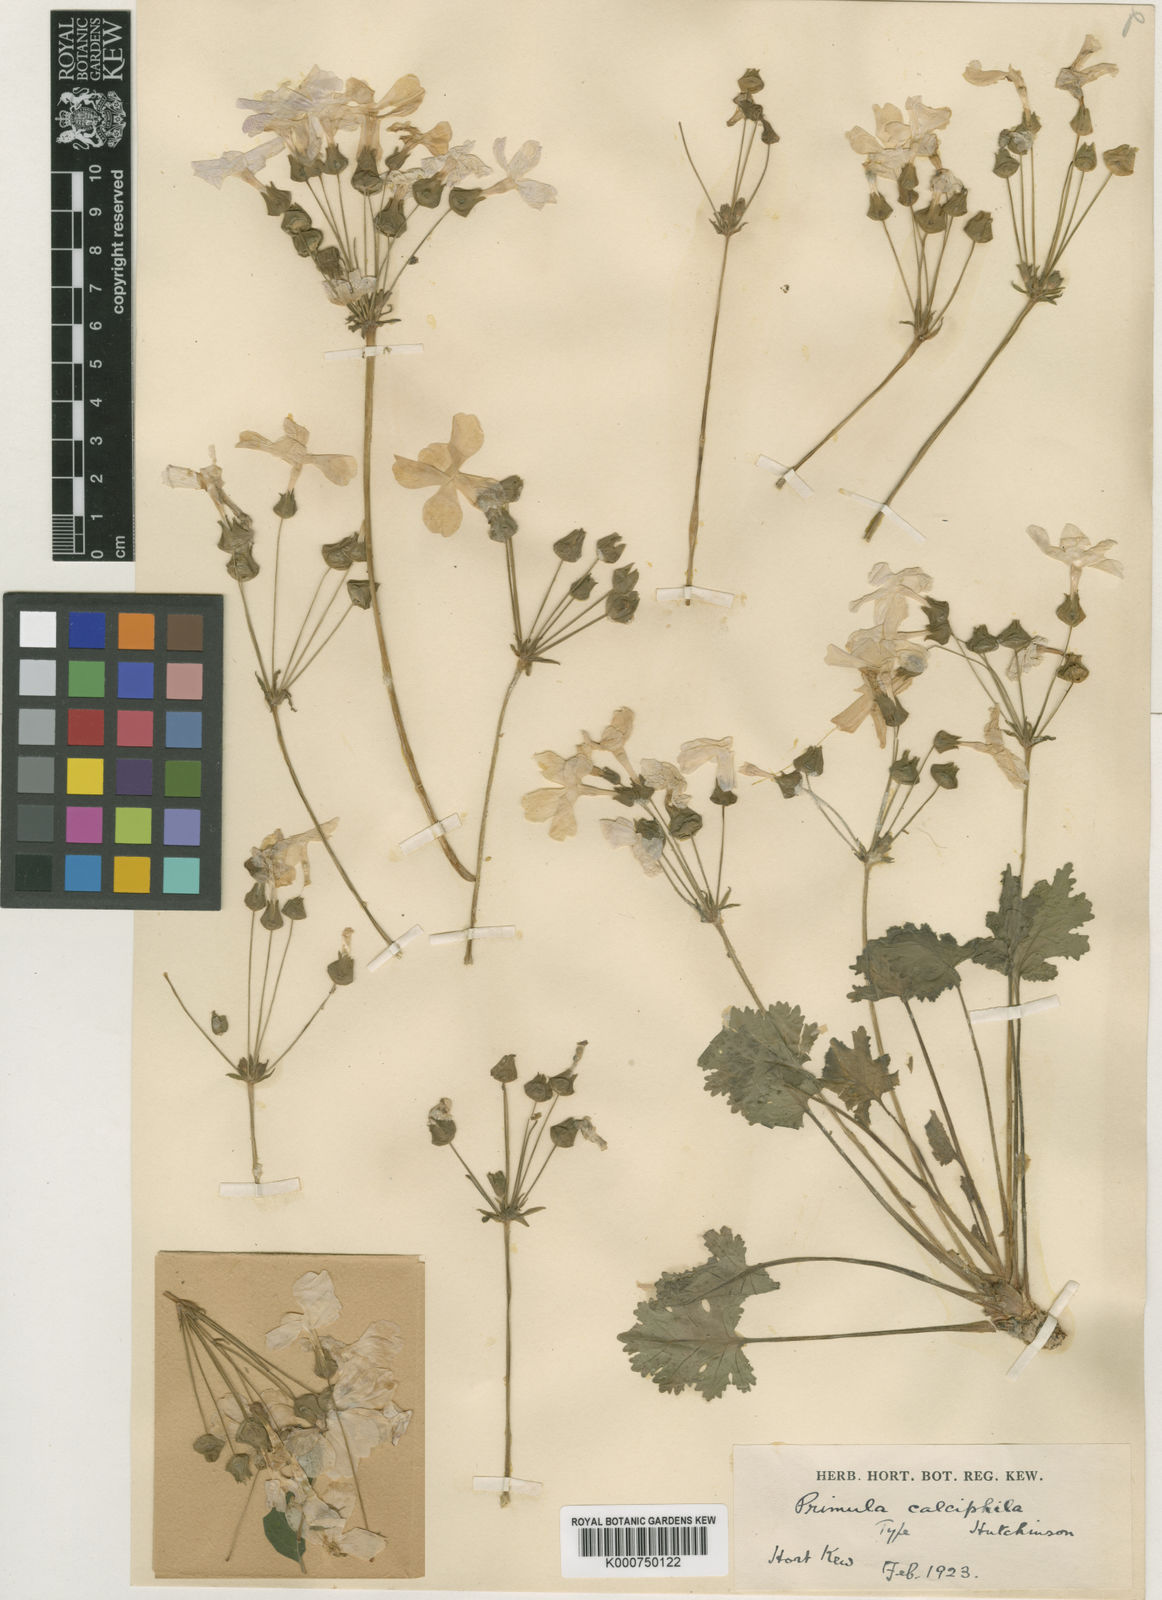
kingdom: Plantae
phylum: Tracheophyta
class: Magnoliopsida
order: Ericales
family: Primulaceae
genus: Primula
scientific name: Primula rupestris
